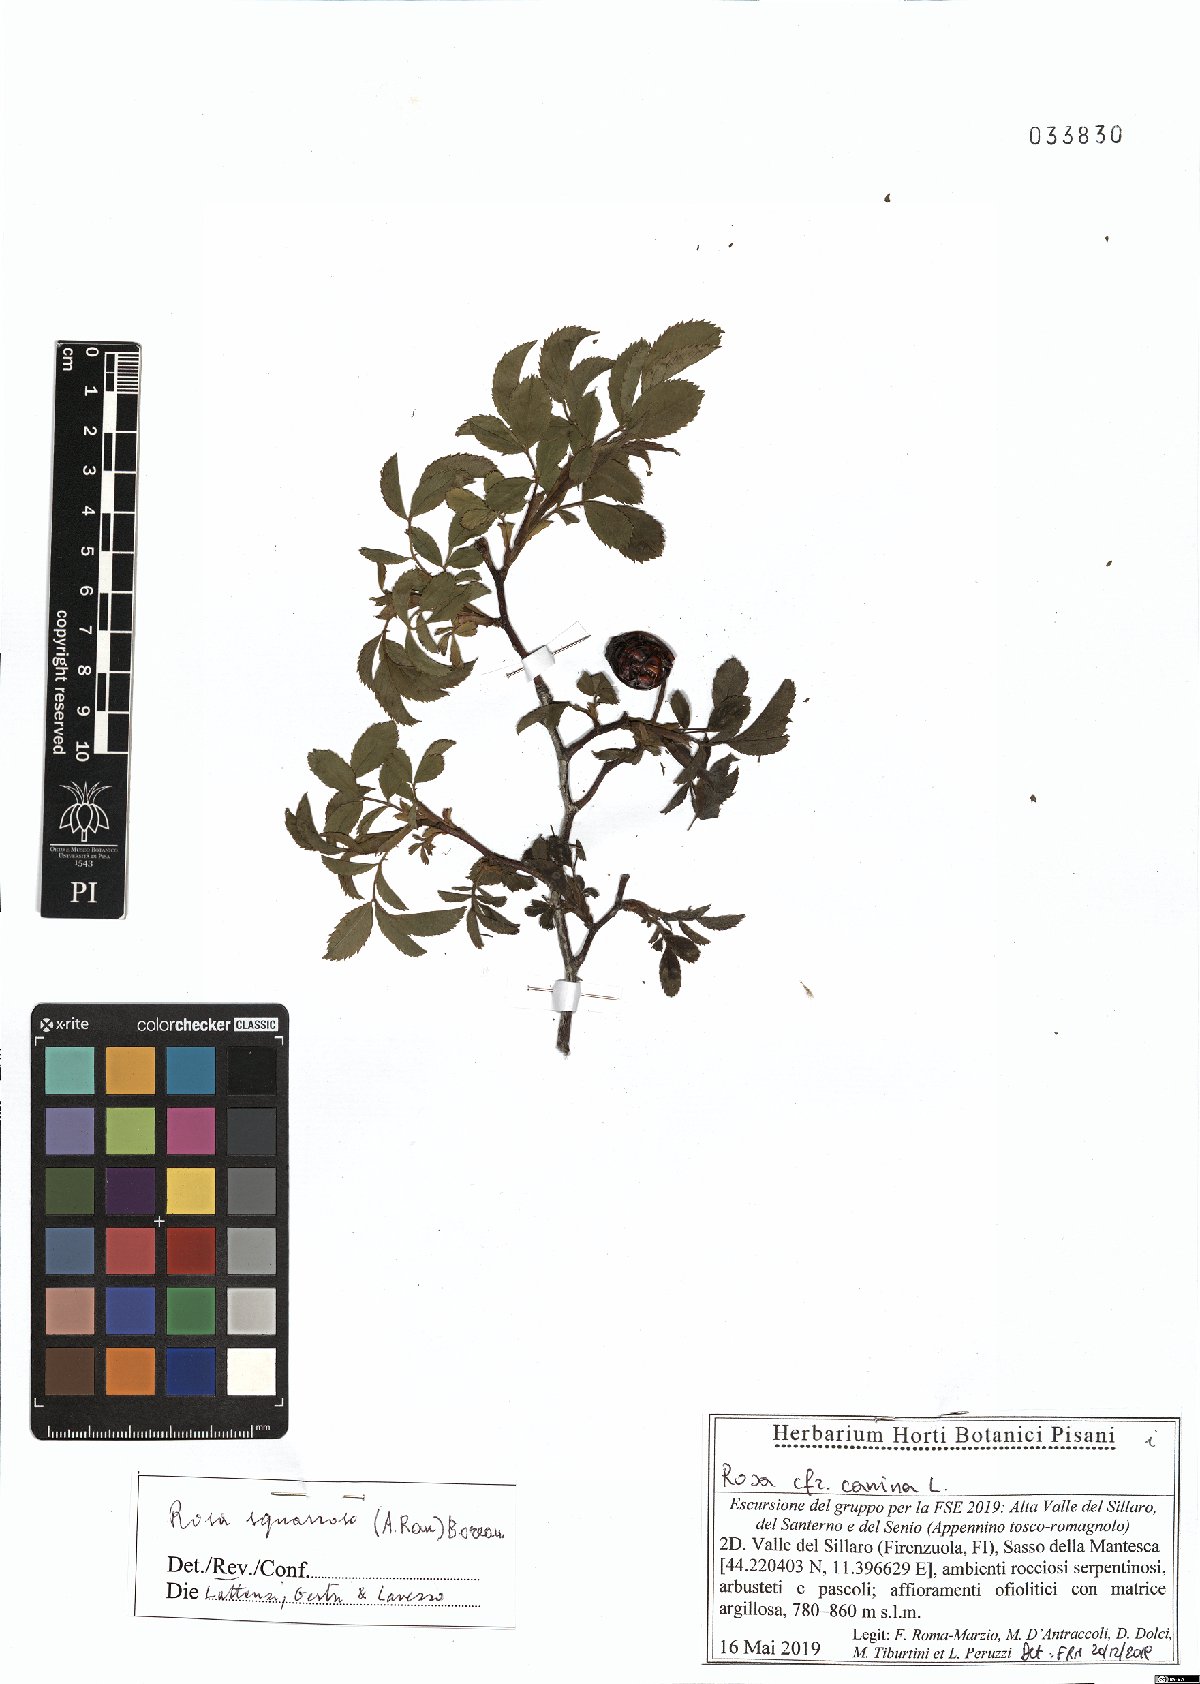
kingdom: Plantae
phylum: Tracheophyta
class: Magnoliopsida
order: Rosales
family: Rosaceae
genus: Rosa
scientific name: Rosa canina
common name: Dog rose
